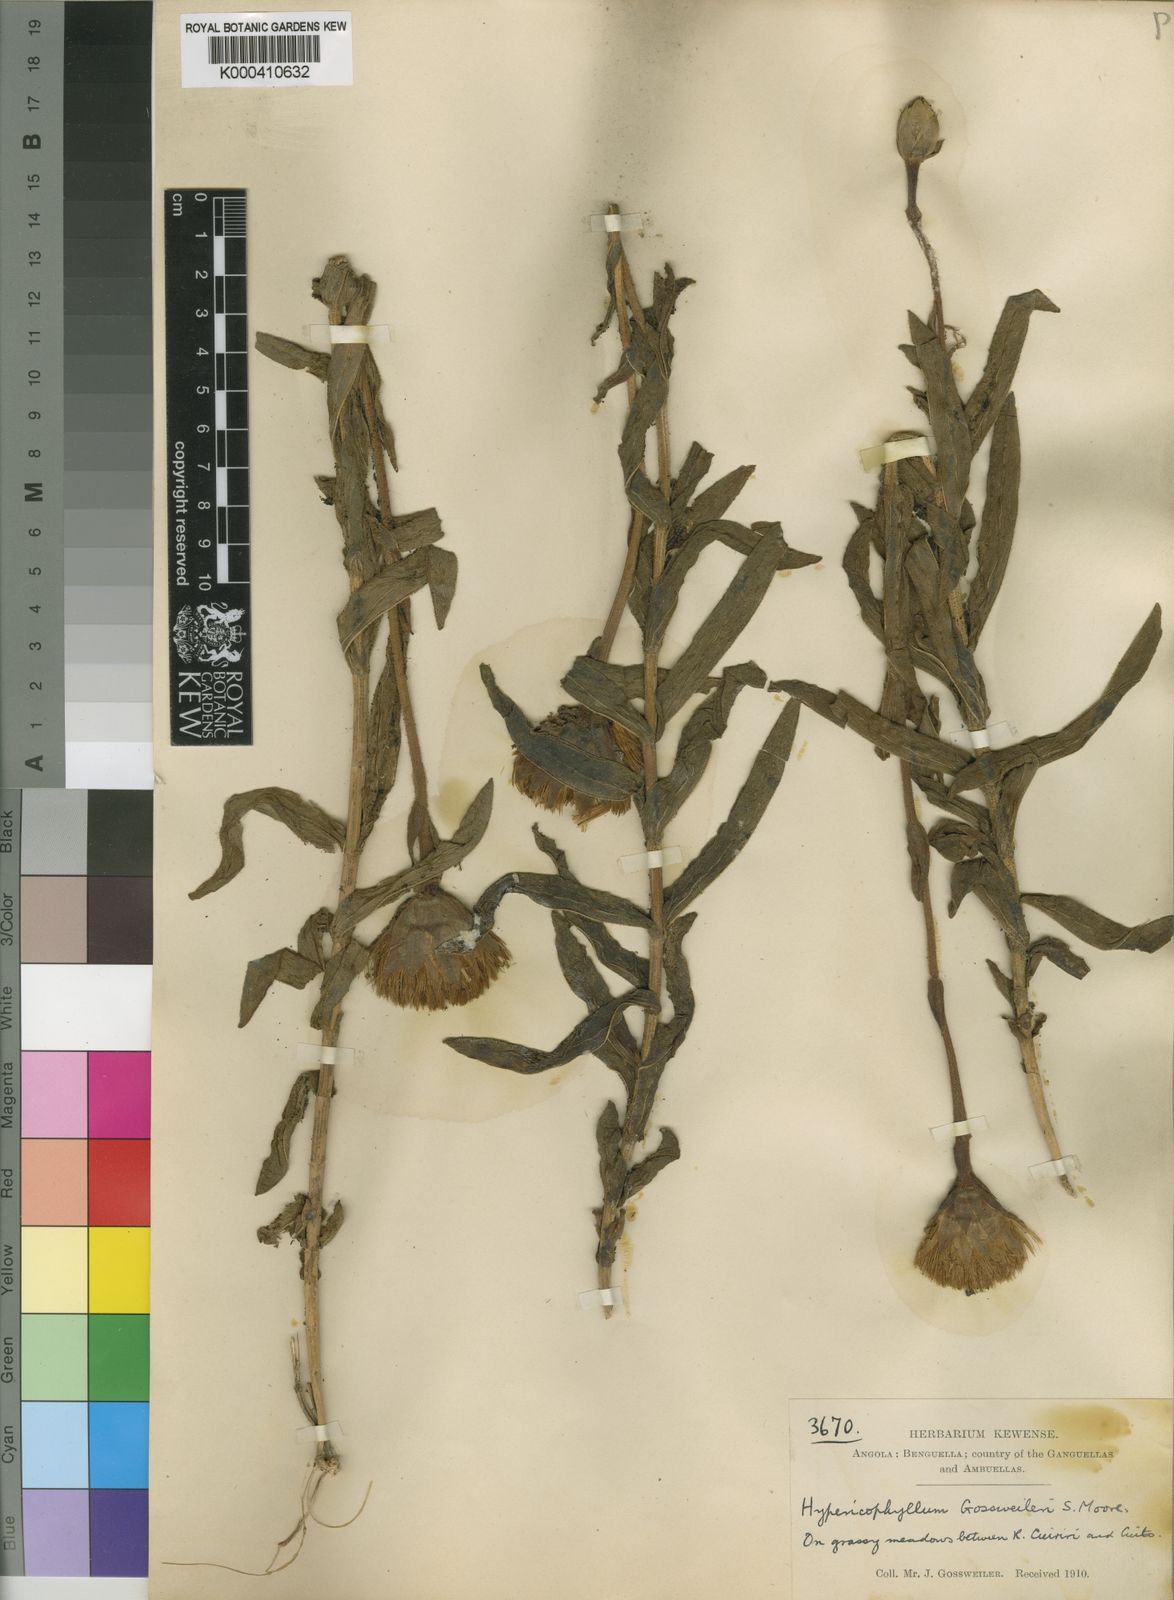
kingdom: Plantae
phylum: Tracheophyta
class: Magnoliopsida
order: Asterales
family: Asteraceae
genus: Hypericophyllum
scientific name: Hypericophyllum gossweileri
